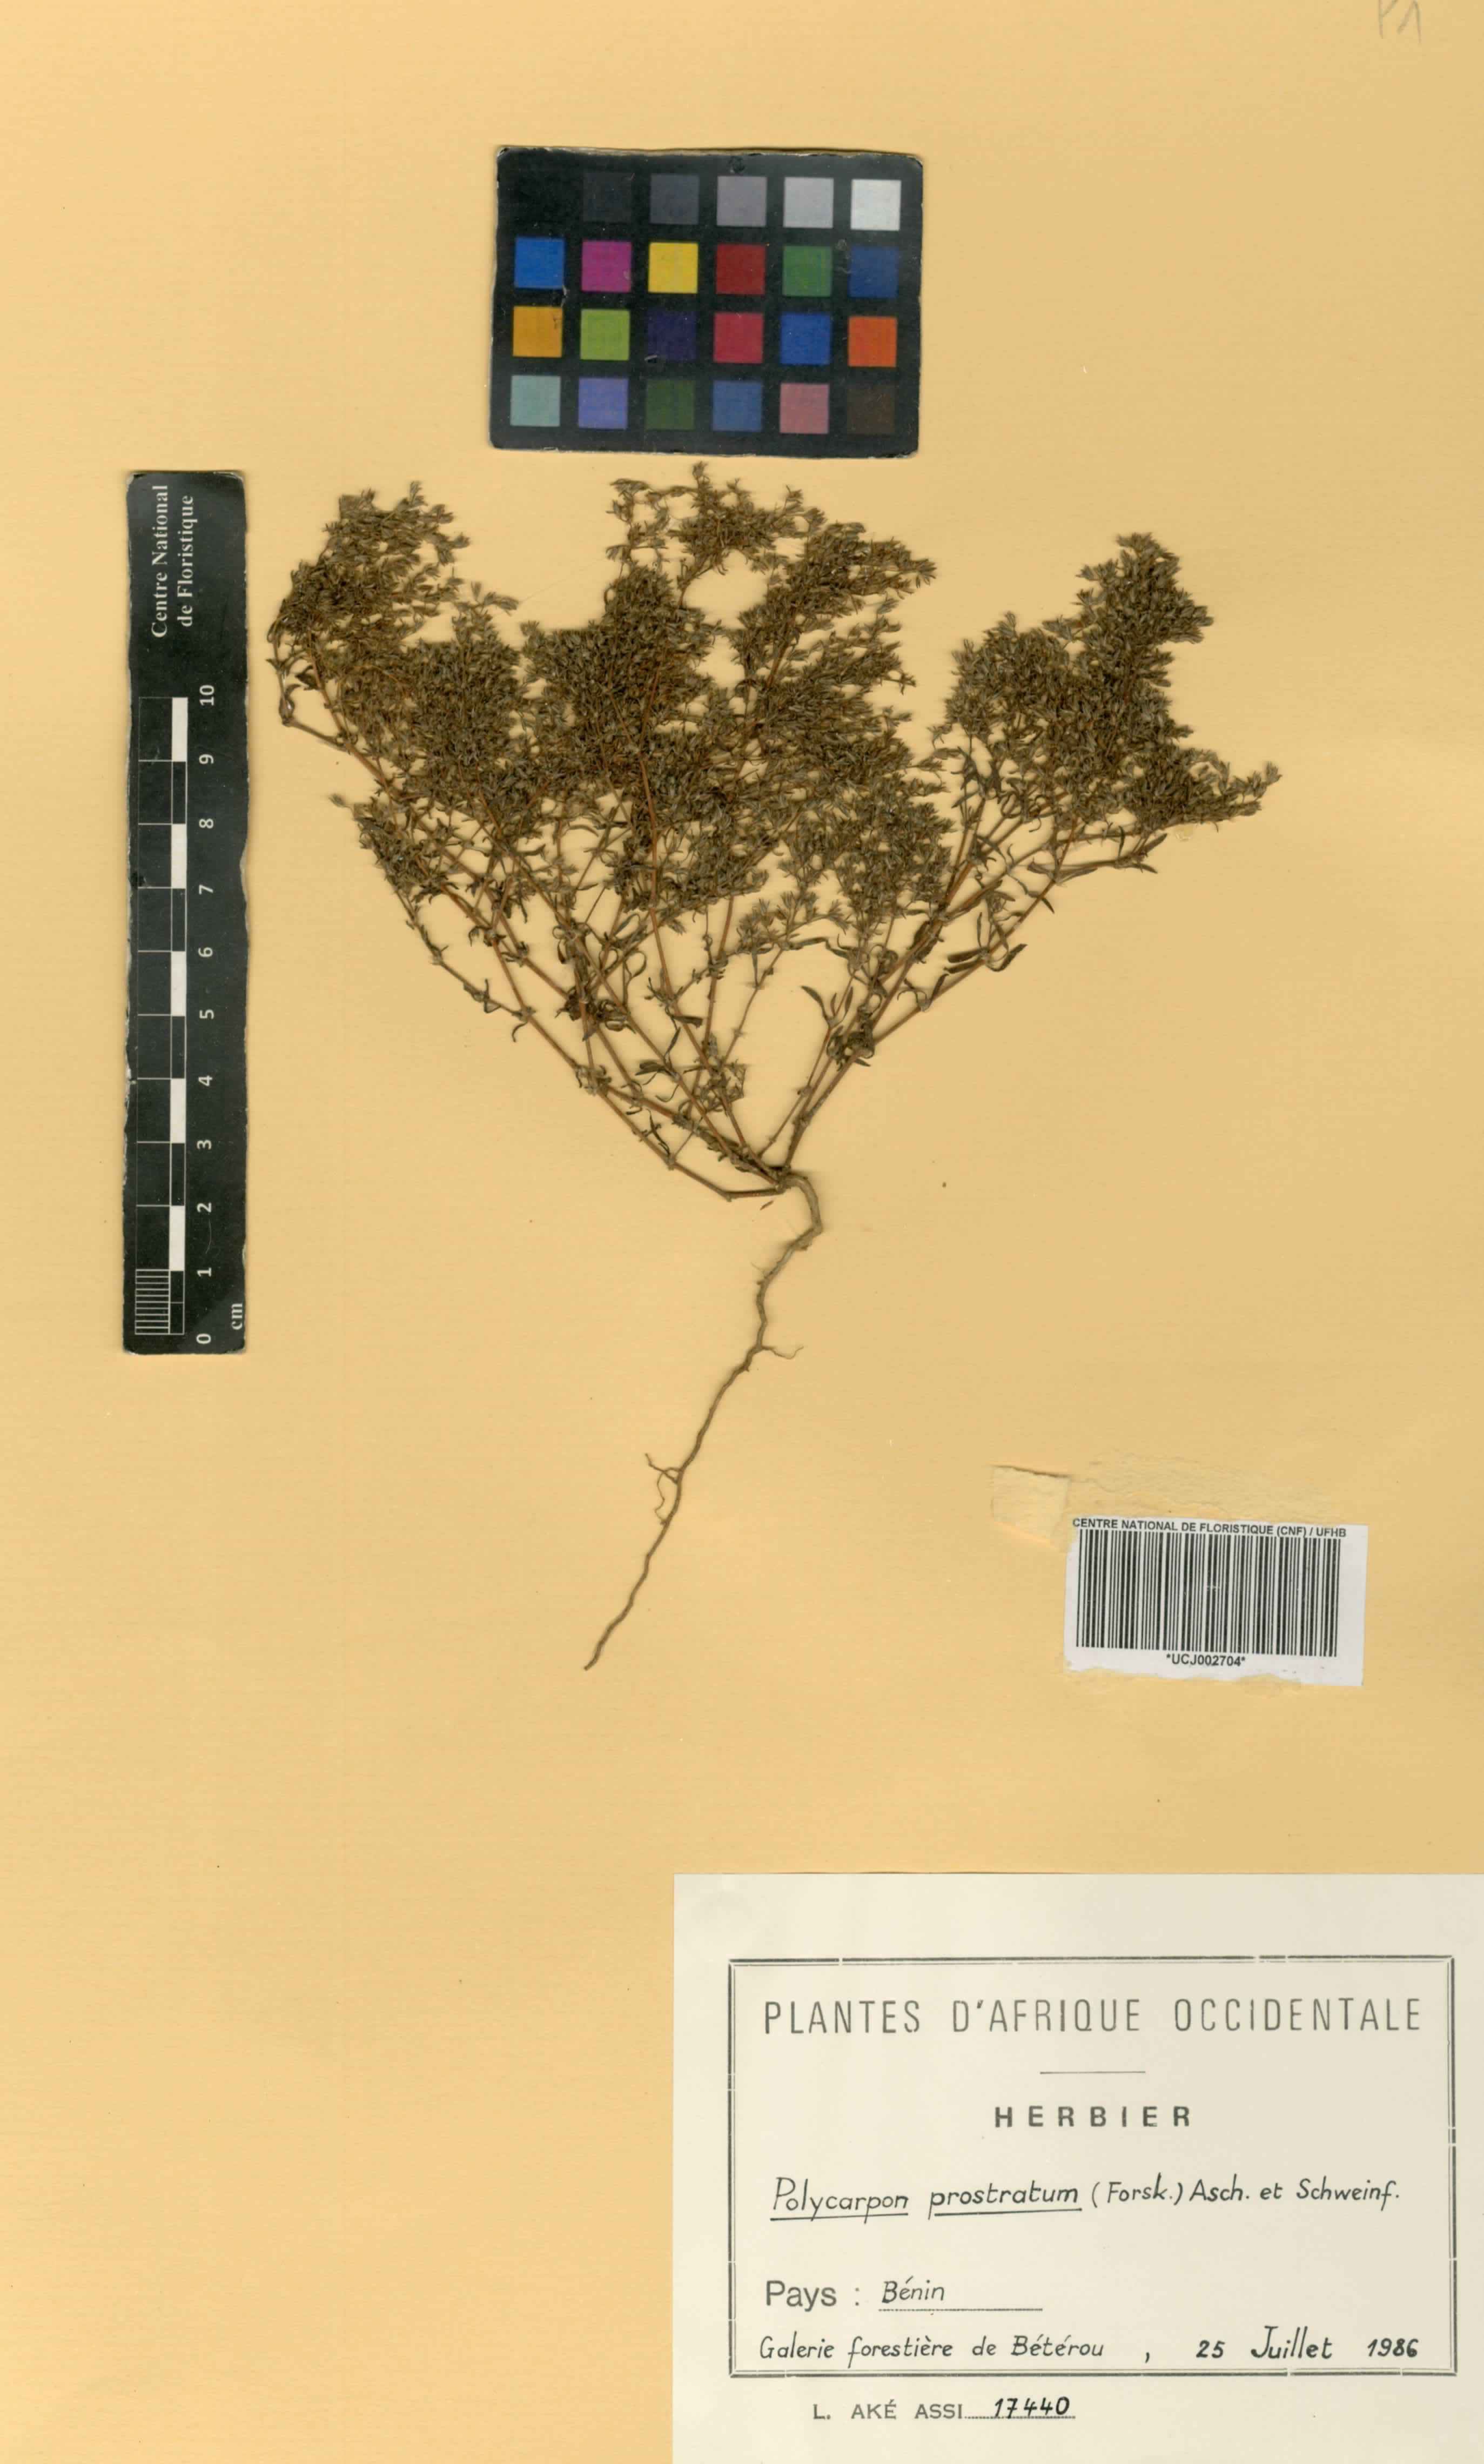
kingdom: Plantae
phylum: Tracheophyta
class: Magnoliopsida
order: Caryophyllales
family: Caryophyllaceae
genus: Polycarpon
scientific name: Polycarpon prostratum
